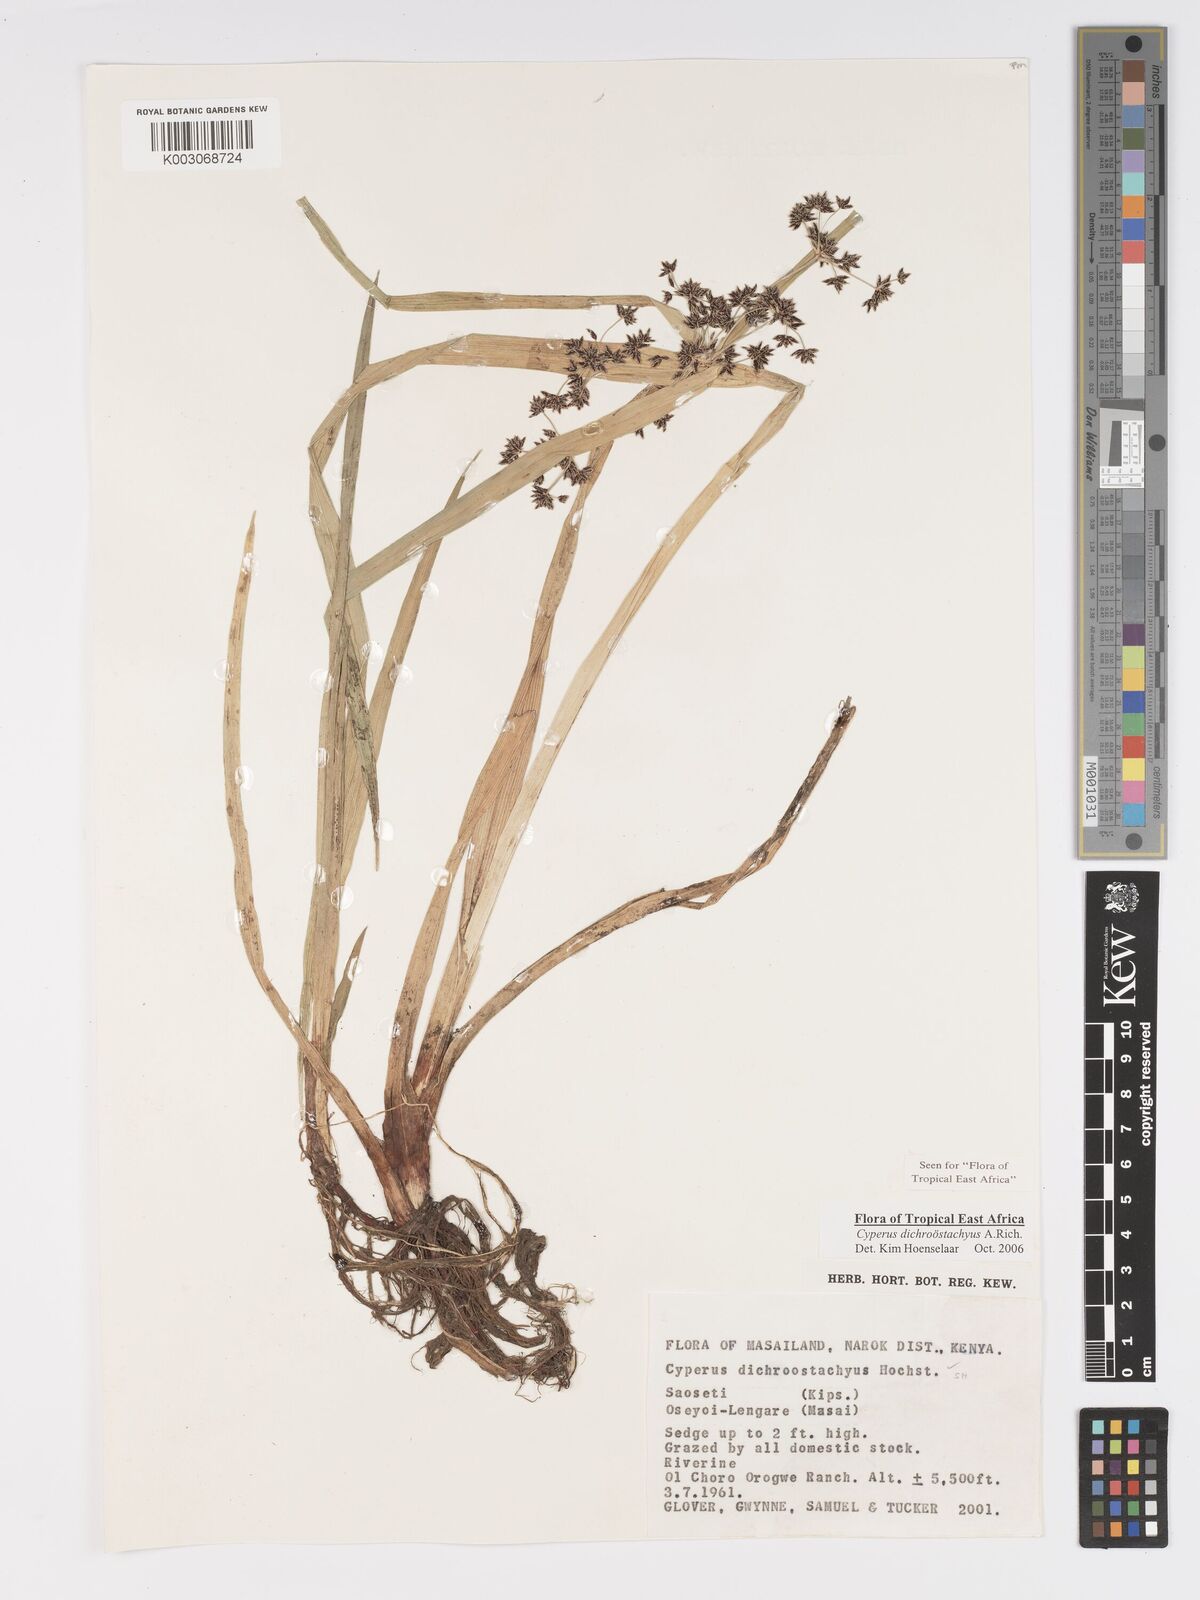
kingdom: Plantae
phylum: Tracheophyta
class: Liliopsida
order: Poales
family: Cyperaceae
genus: Cyperus
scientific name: Cyperus dichrostachyus
